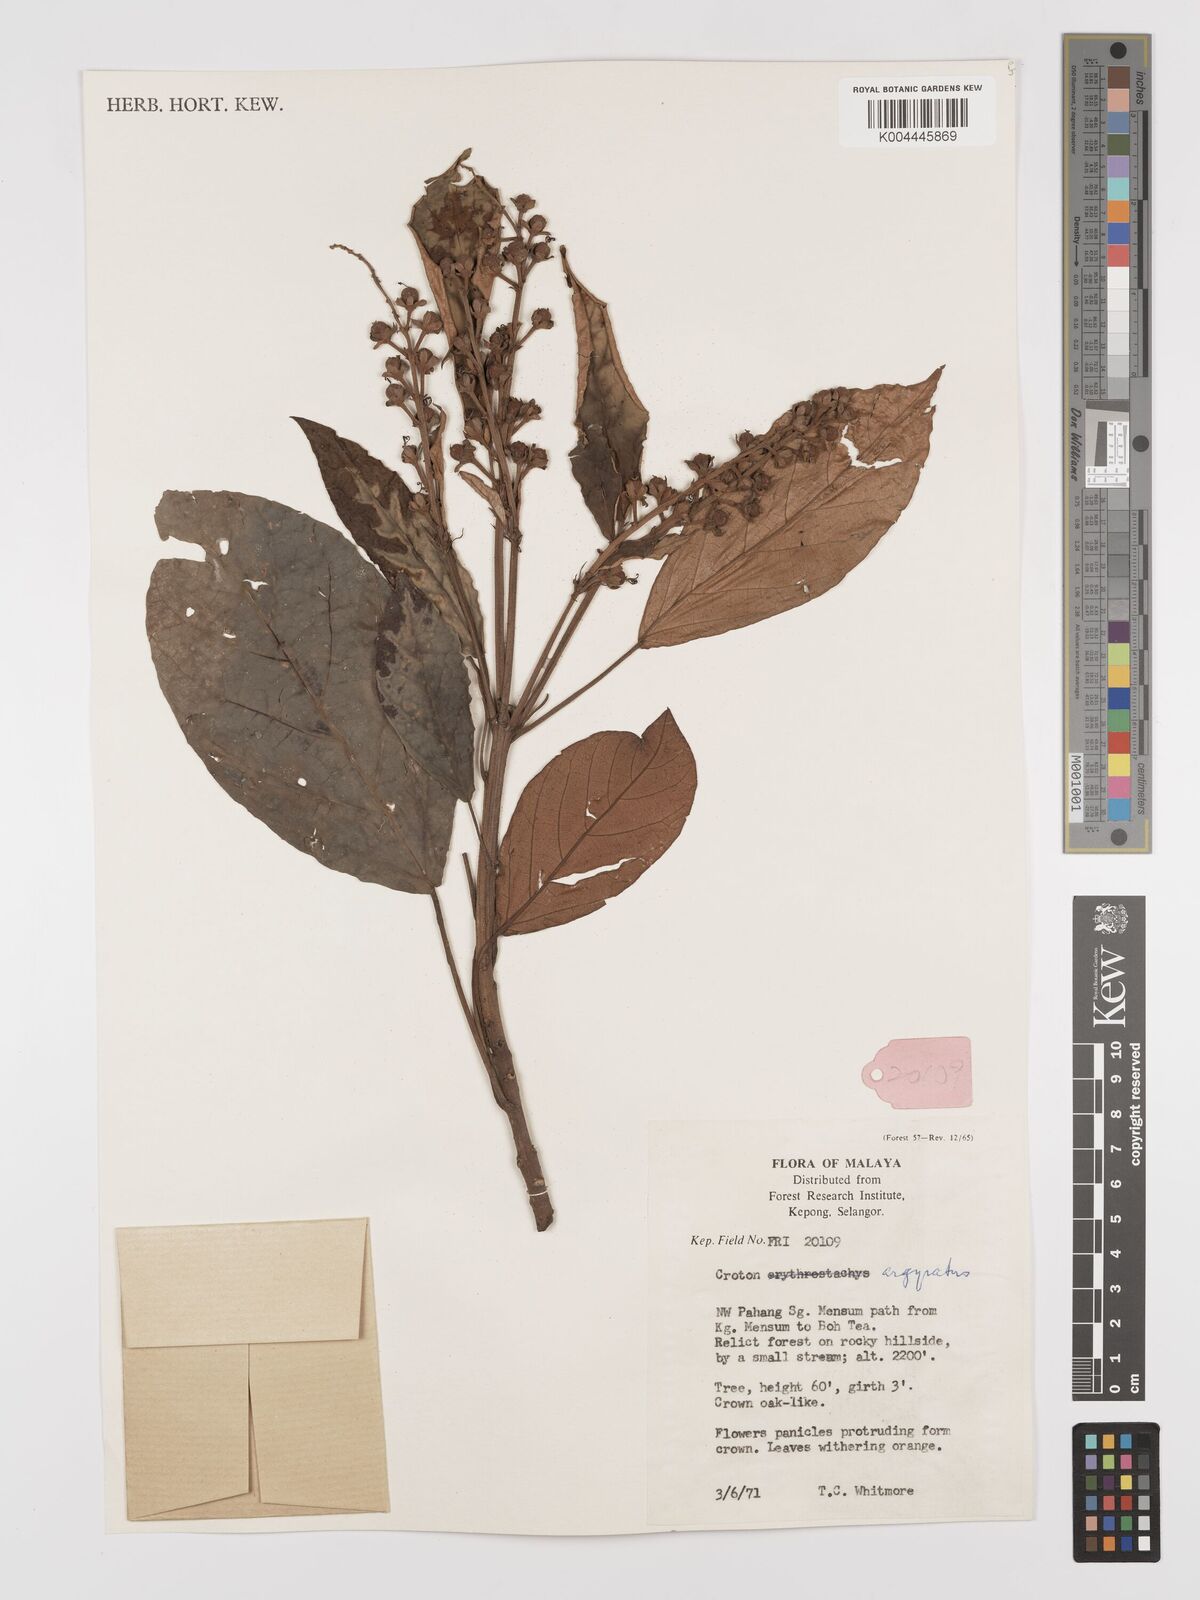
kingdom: Plantae
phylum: Tracheophyta
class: Magnoliopsida
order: Malpighiales
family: Euphorbiaceae
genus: Croton
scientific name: Croton argyratus
